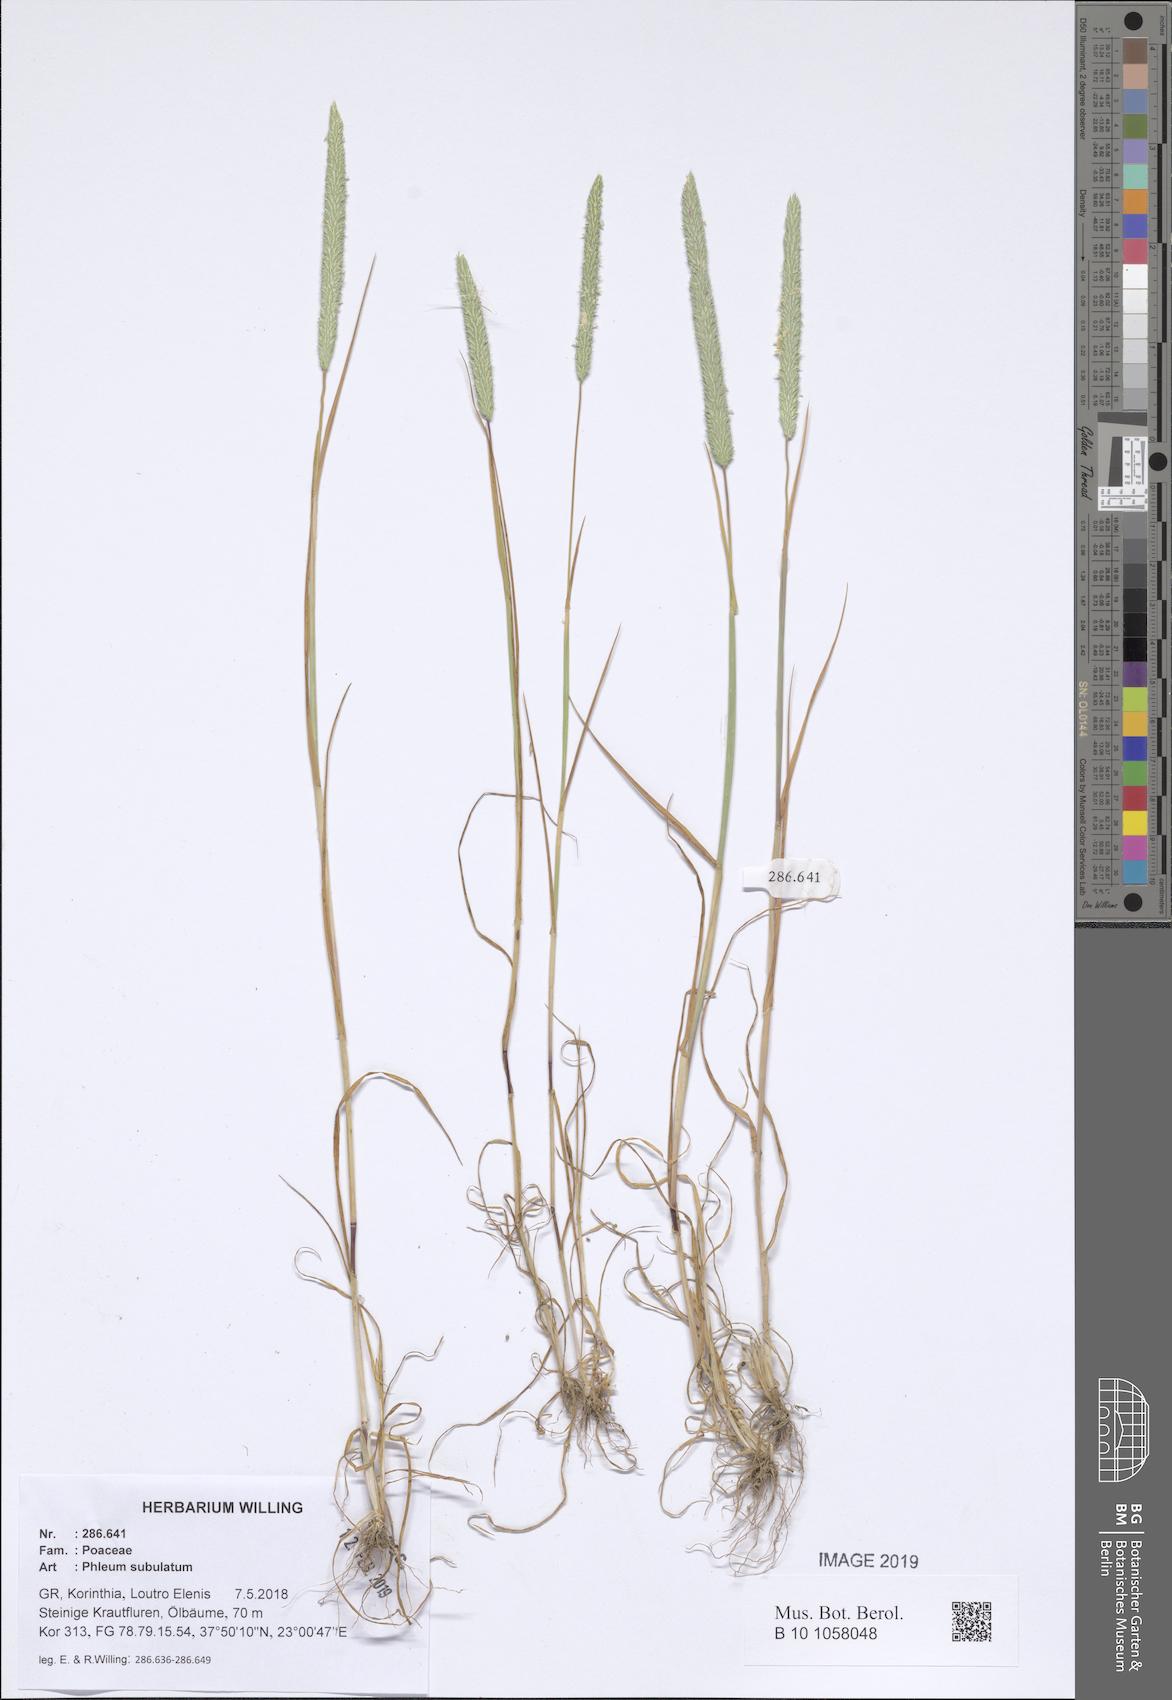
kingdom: Plantae
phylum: Tracheophyta
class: Liliopsida
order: Poales
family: Poaceae
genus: Phleum
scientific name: Phleum subulatum
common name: Italian timothy
